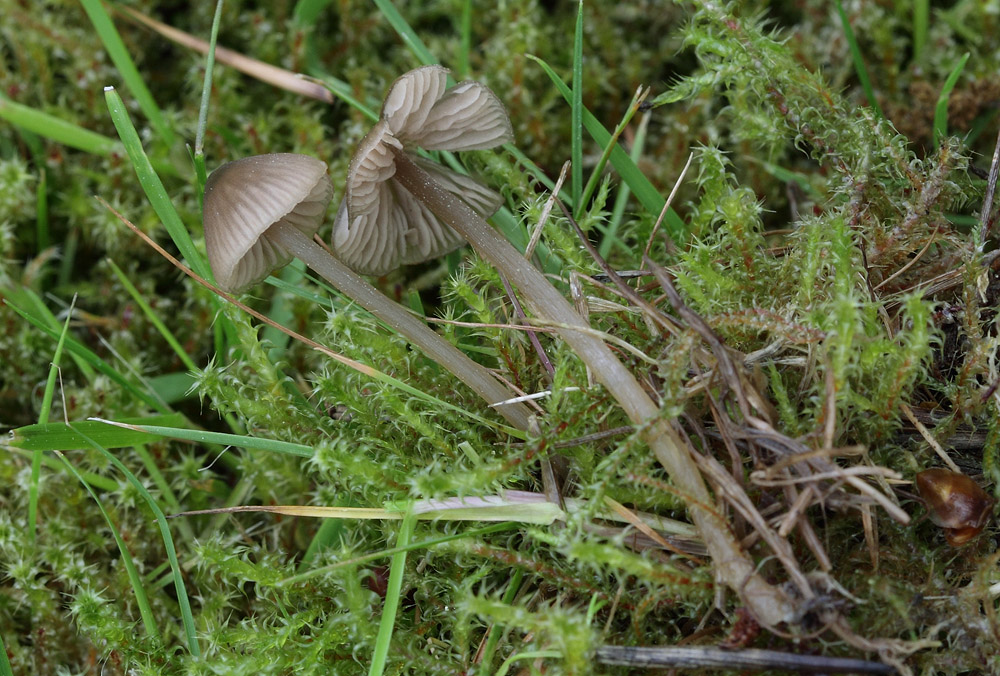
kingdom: Fungi
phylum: Basidiomycota
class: Agaricomycetes
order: Agaricales
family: Entolomataceae
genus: Entoloma
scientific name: Entoloma ventricosum
